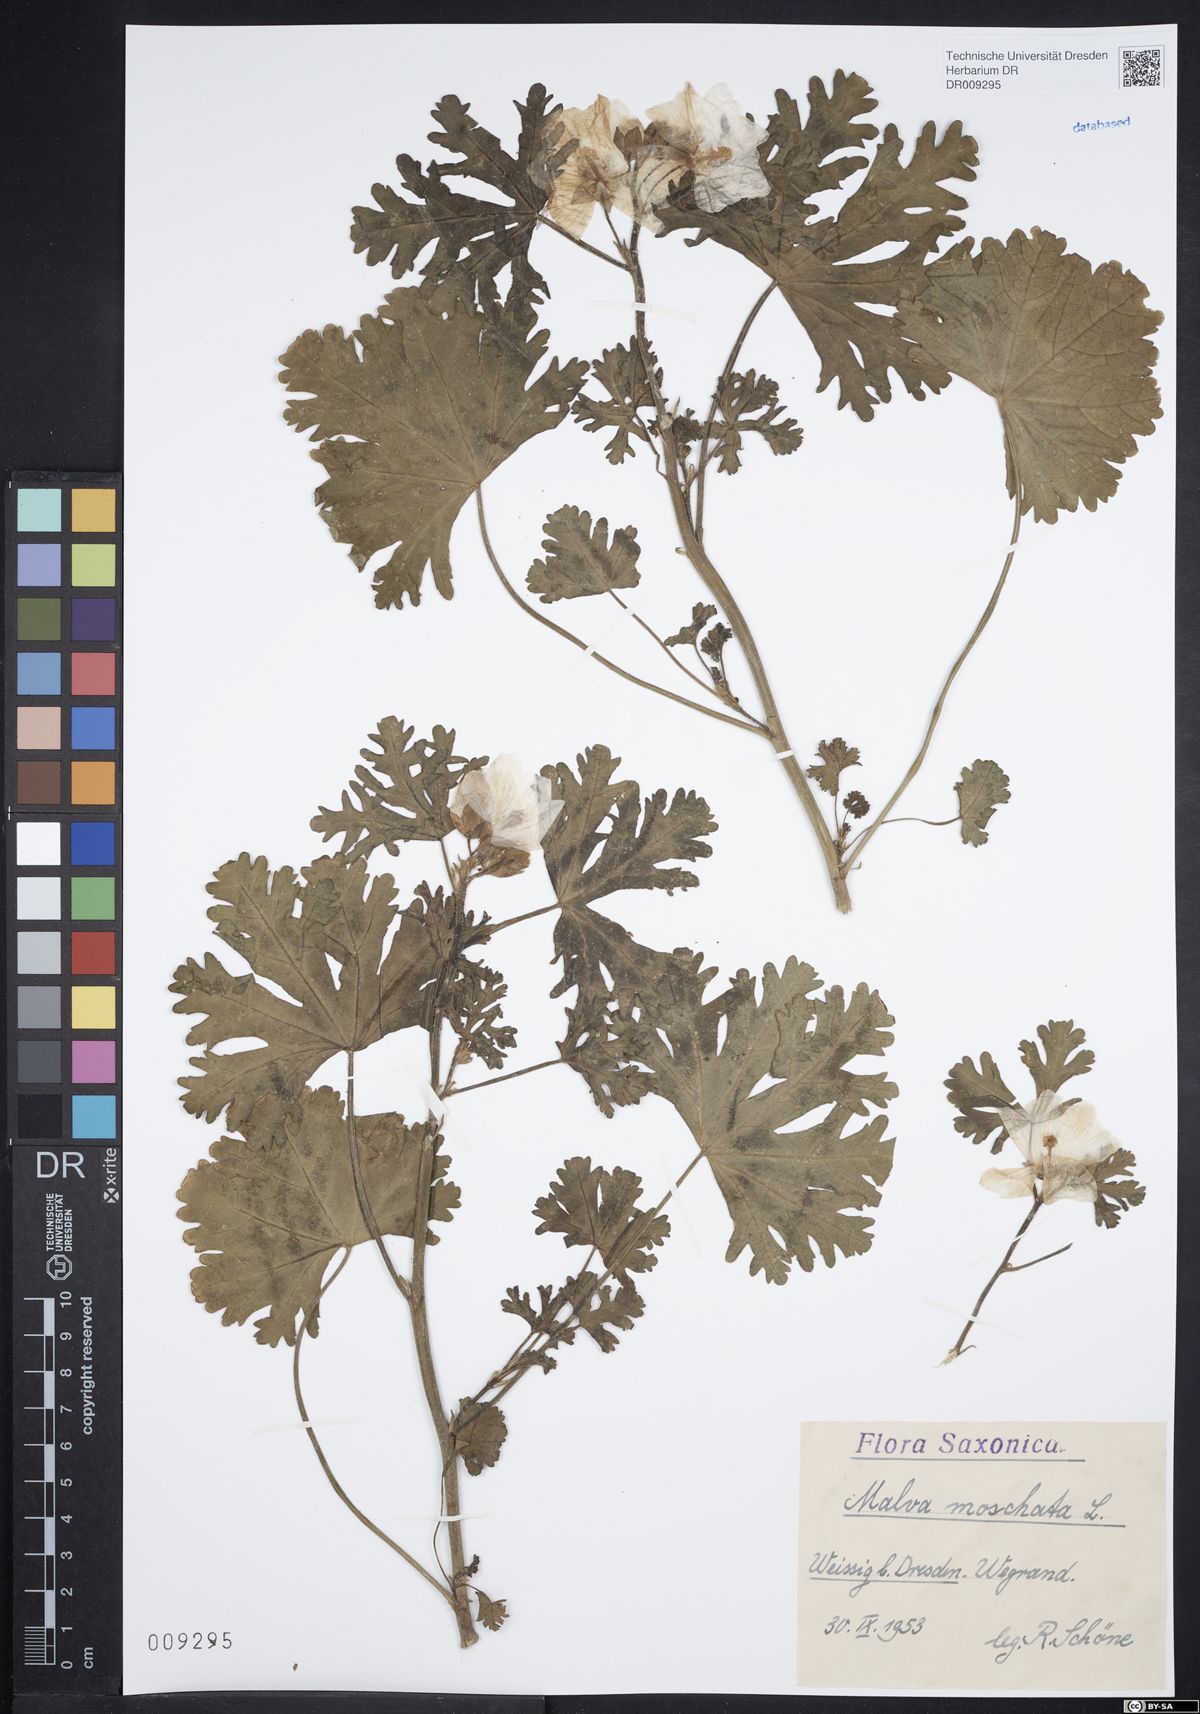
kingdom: Plantae
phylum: Tracheophyta
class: Magnoliopsida
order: Malvales
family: Malvaceae
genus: Malva
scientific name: Malva moschata
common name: Musk mallow
